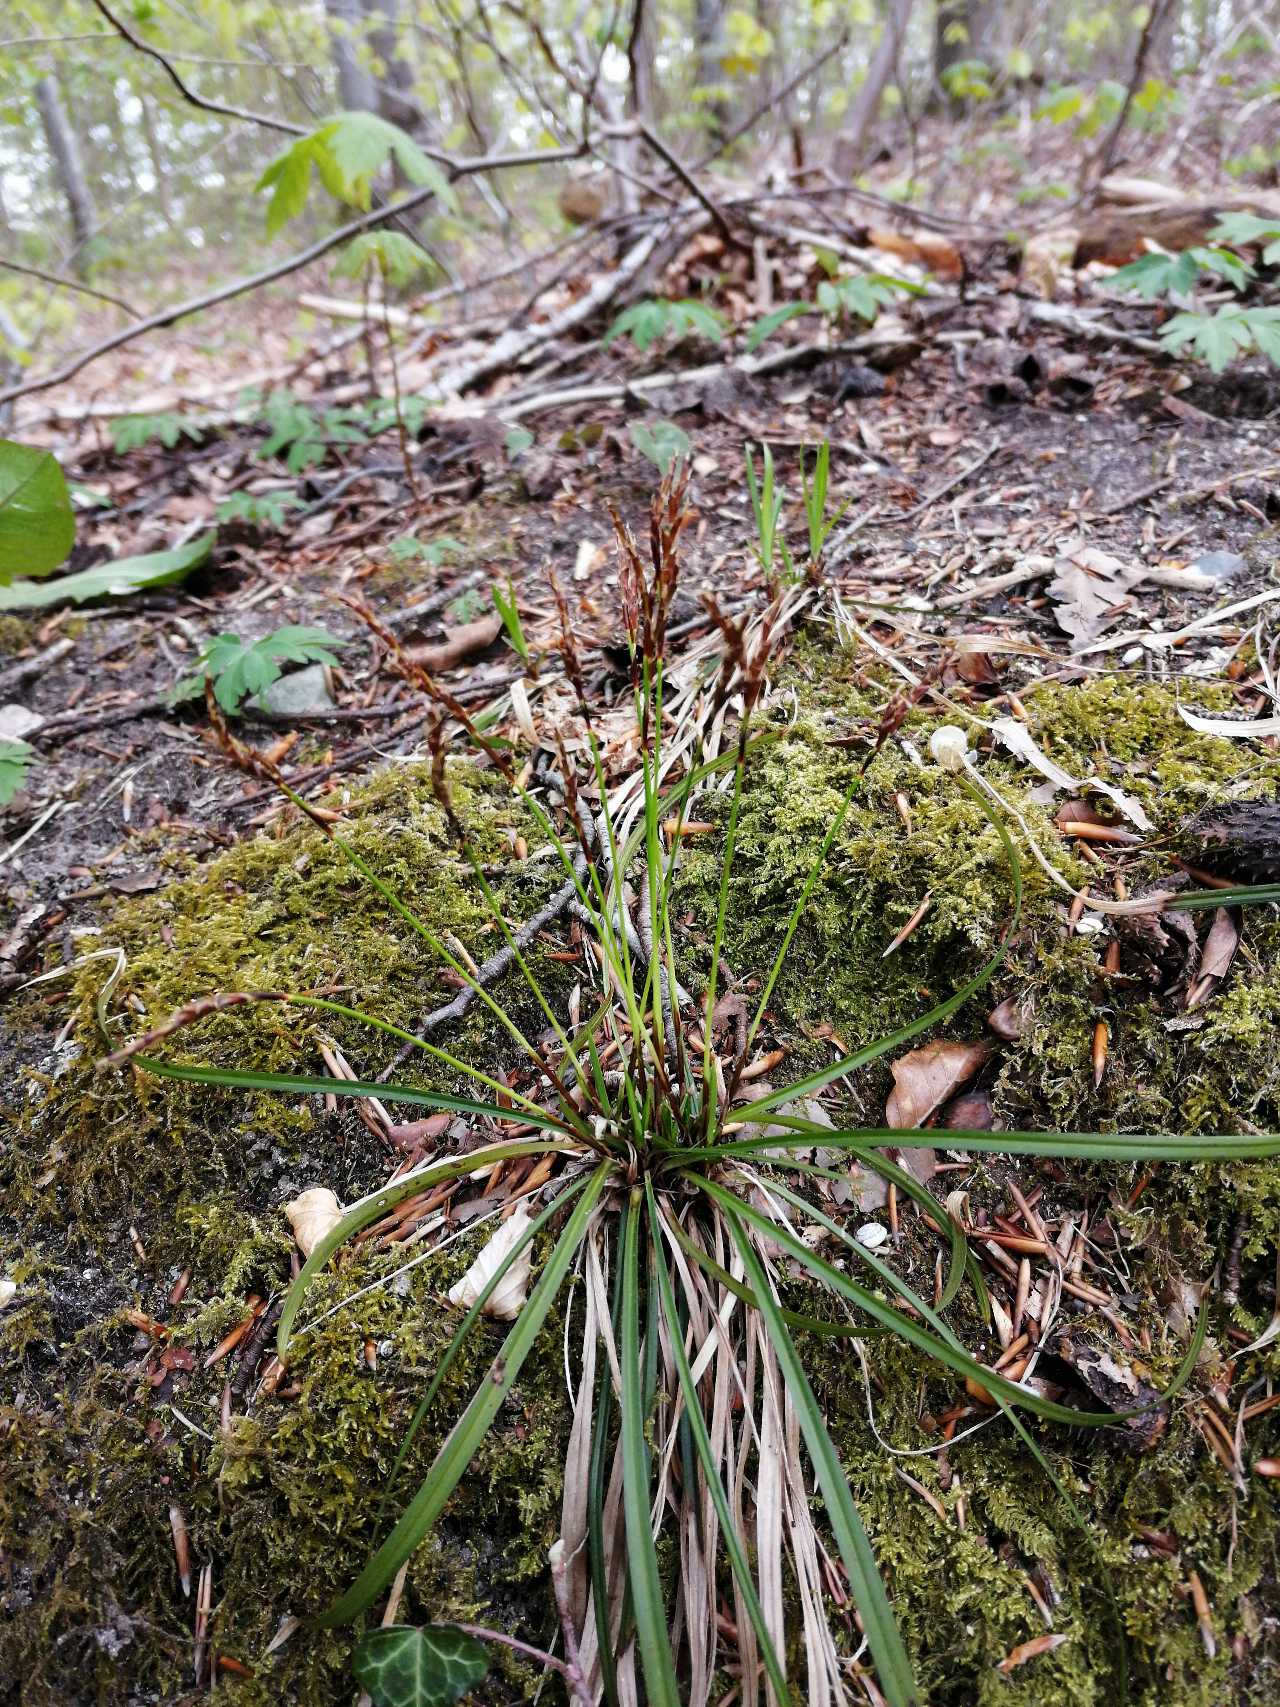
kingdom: Plantae
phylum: Tracheophyta
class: Liliopsida
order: Poales
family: Cyperaceae
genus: Carex
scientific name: Carex digitata
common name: Finger-star
